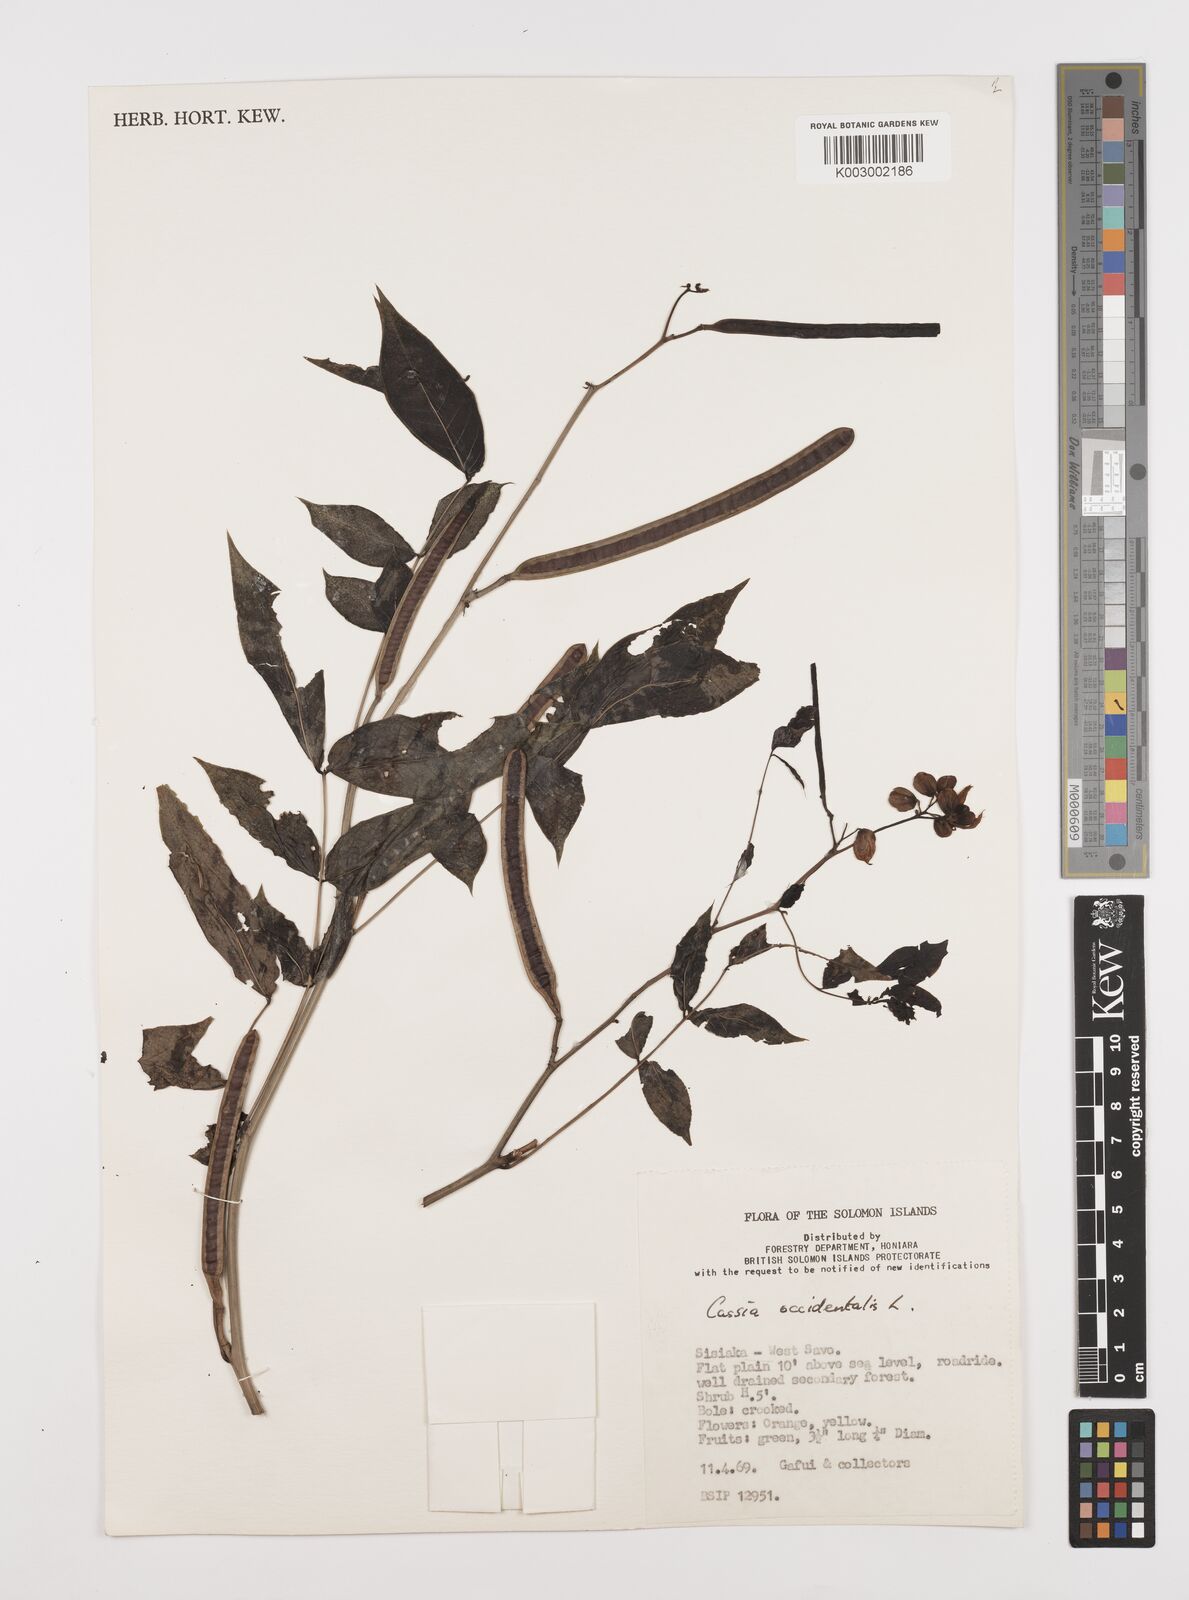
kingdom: Plantae
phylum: Tracheophyta
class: Magnoliopsida
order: Fabales
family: Fabaceae
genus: Senna
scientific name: Senna occidentalis
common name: Septicweed
